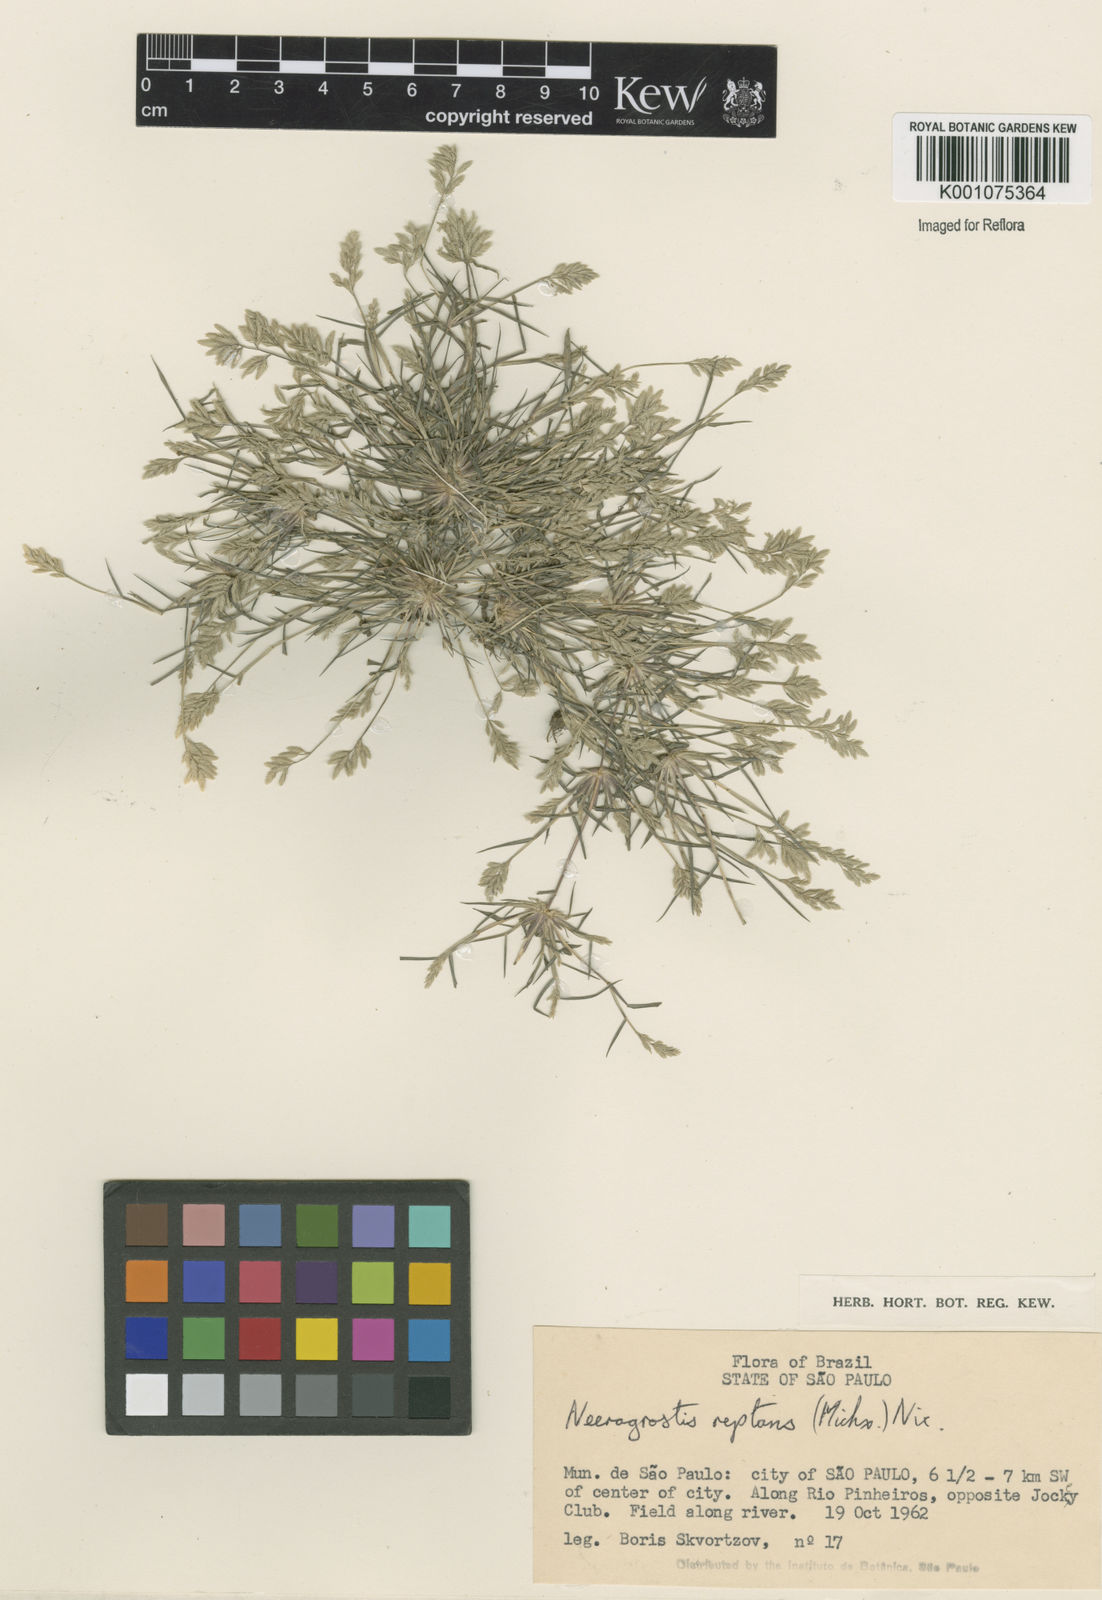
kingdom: Plantae
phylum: Tracheophyta
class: Liliopsida
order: Poales
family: Poaceae
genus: Eragrostis
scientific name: Eragrostis
